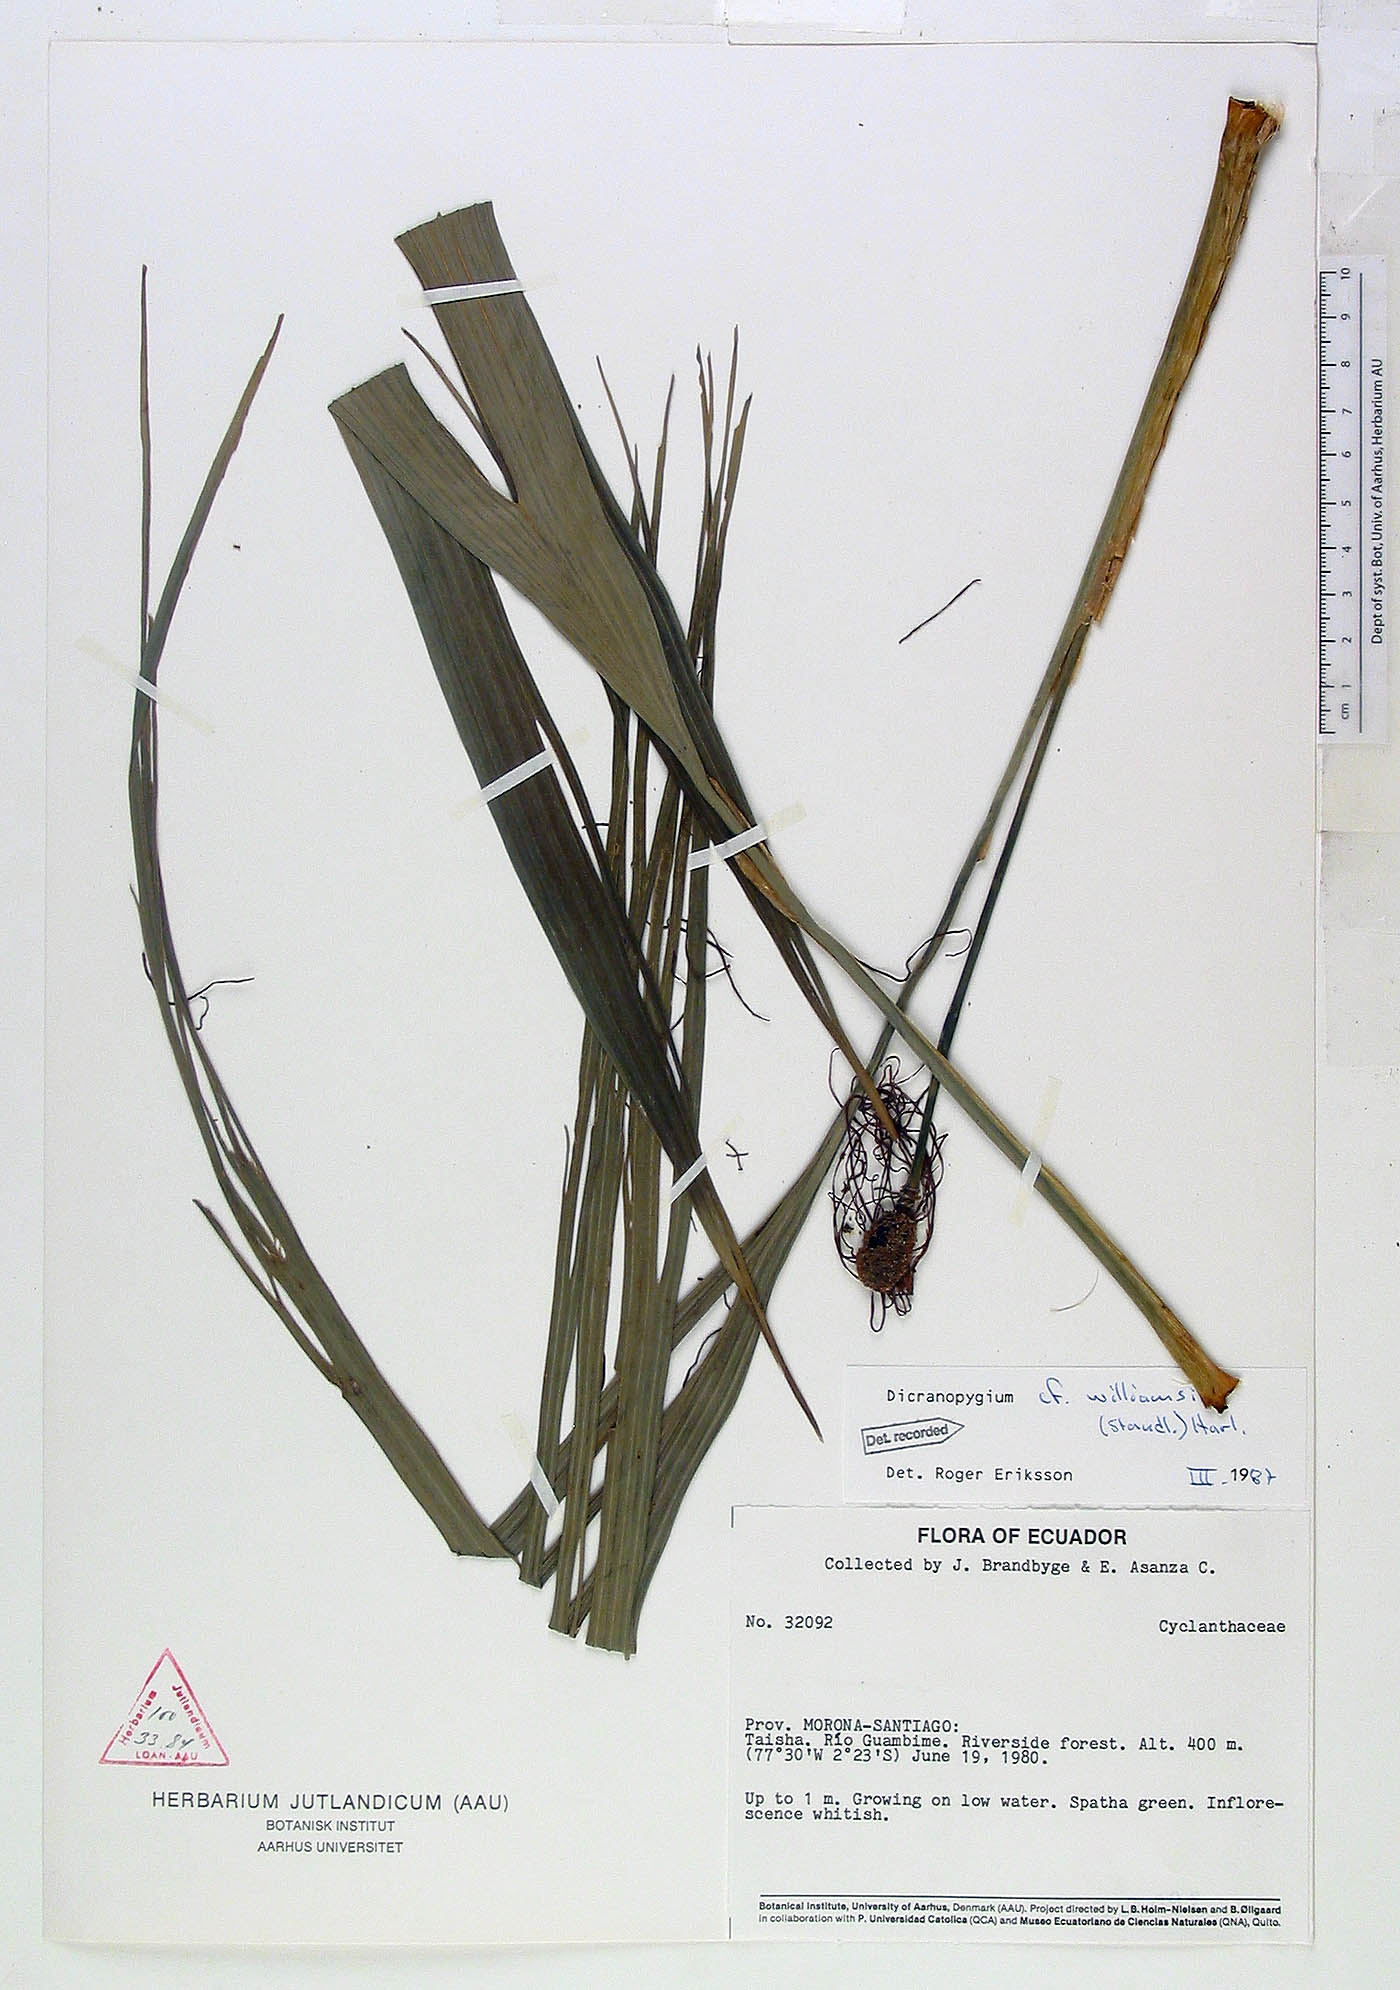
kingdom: Plantae
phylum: Tracheophyta
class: Liliopsida
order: Pandanales
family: Cyclanthaceae
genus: Dicranopygium
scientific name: Dicranopygium williamsii
